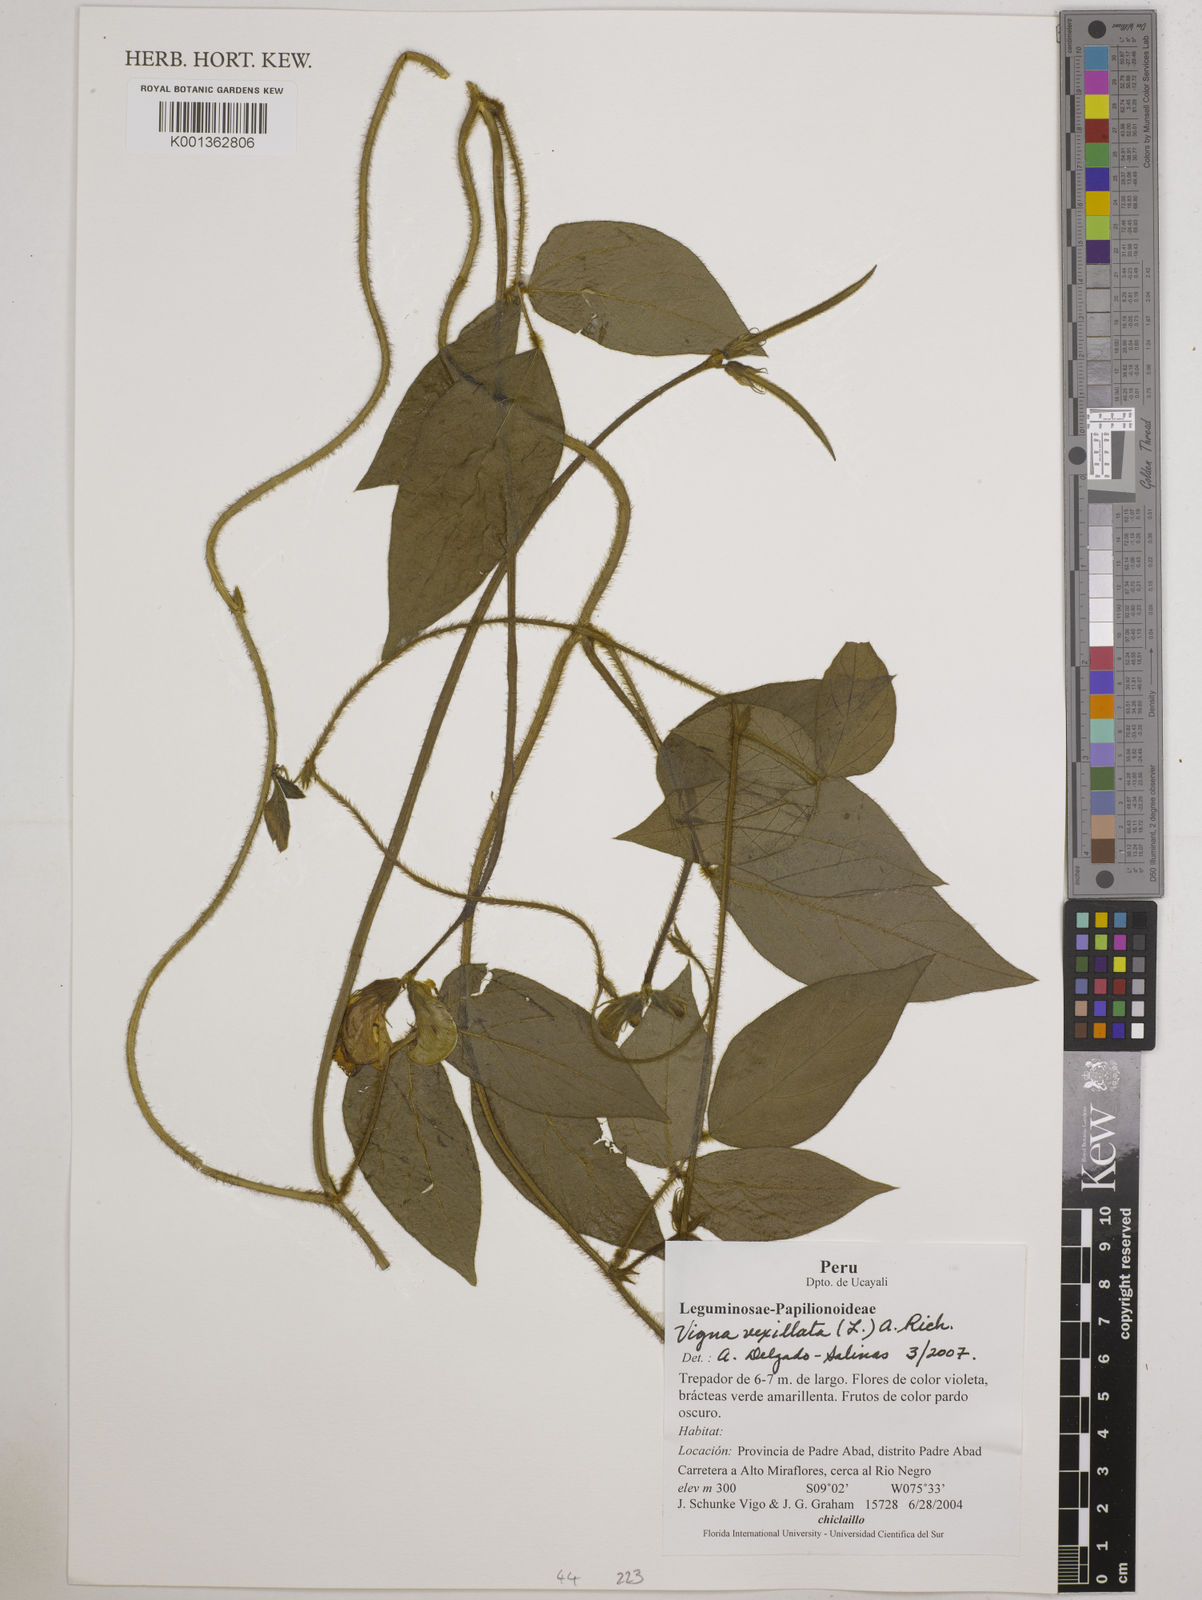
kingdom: Plantae
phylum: Tracheophyta
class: Magnoliopsida
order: Fabales
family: Fabaceae
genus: Vigna
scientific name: Vigna vexillata
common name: Zombi pea
